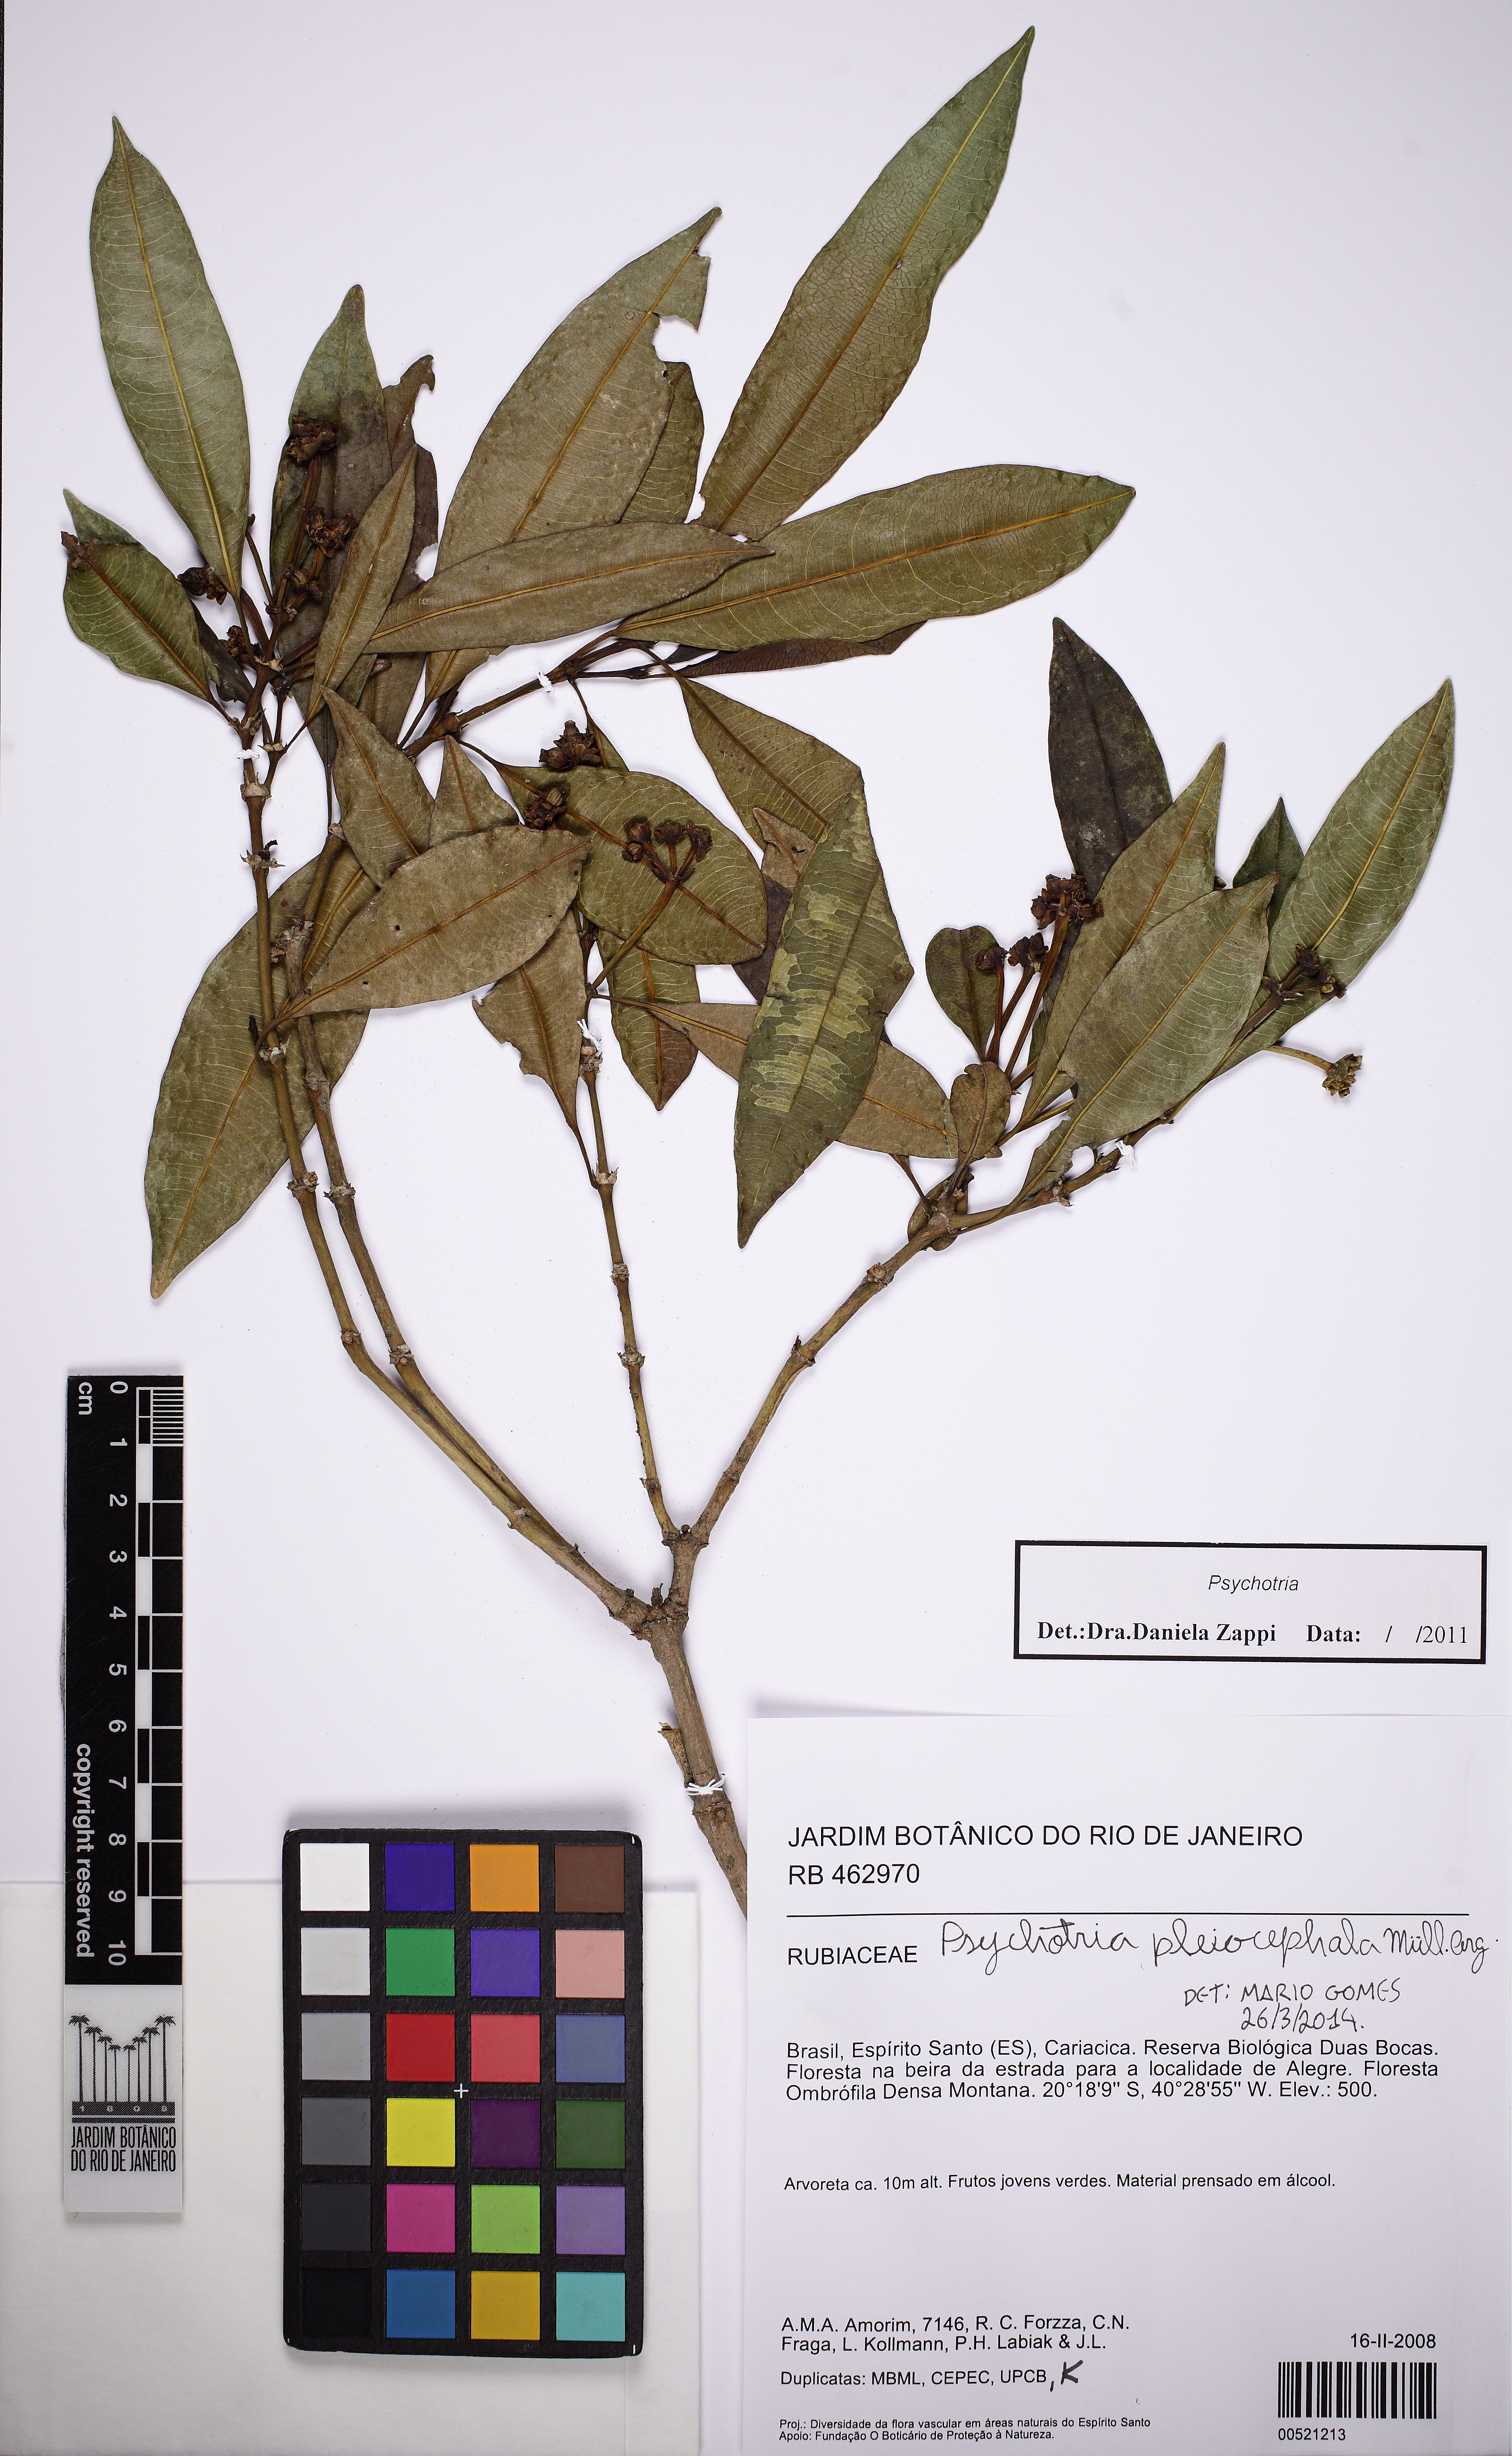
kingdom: Plantae
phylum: Tracheophyta
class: Magnoliopsida
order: Gentianales
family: Rubiaceae
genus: Palicourea
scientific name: Palicourea pleiocephala
